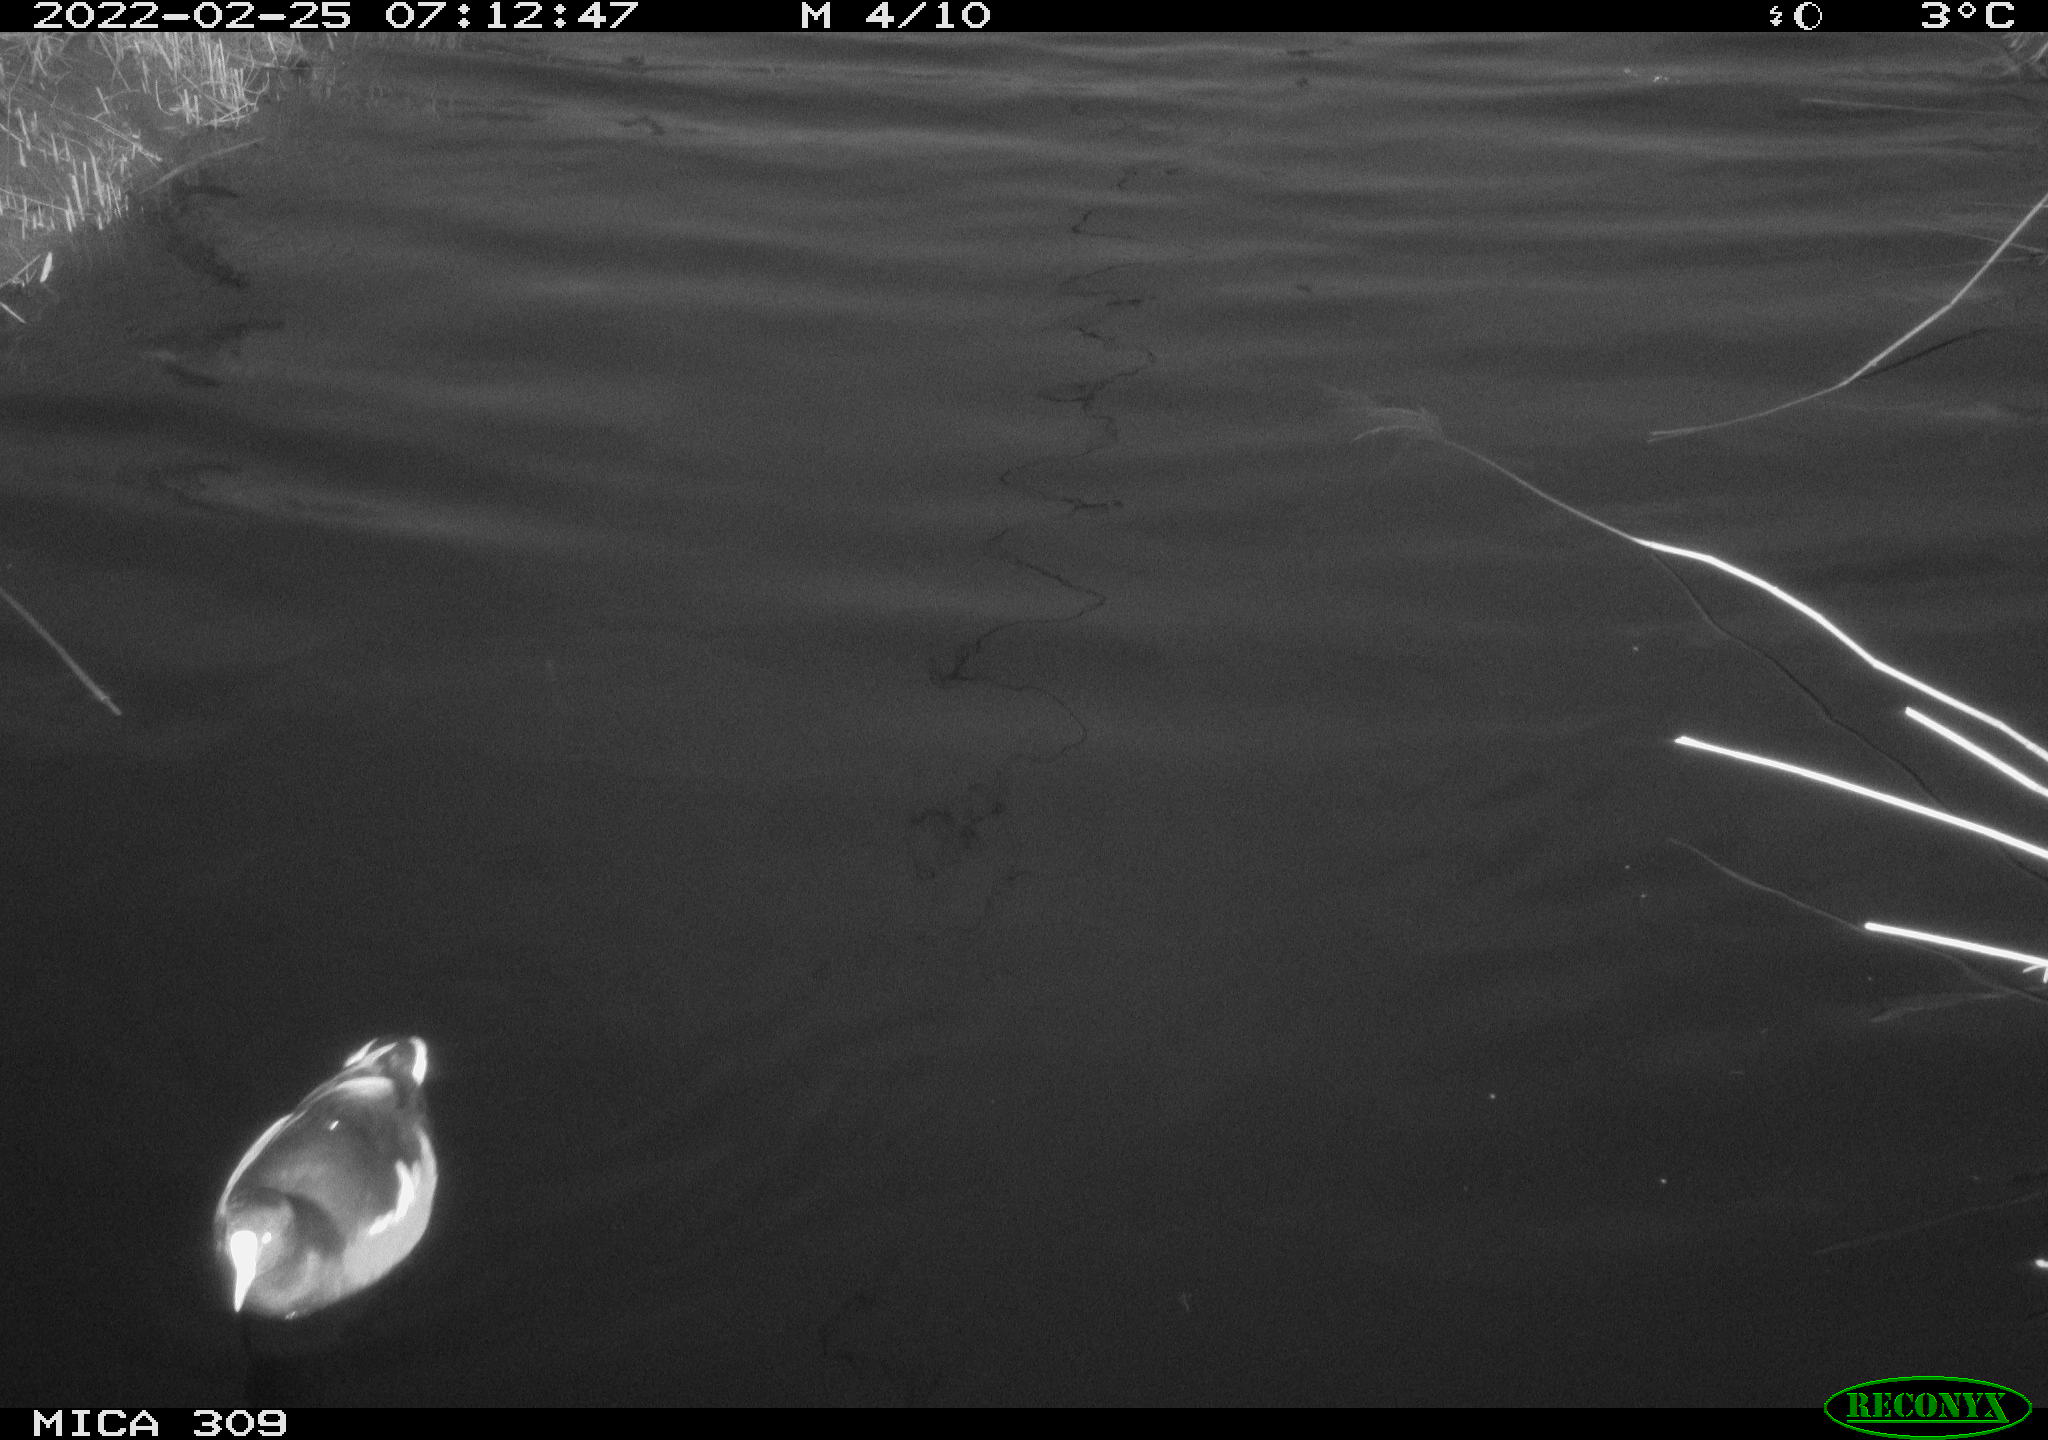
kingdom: Animalia
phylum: Chordata
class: Aves
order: Gruiformes
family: Rallidae
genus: Gallinula
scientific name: Gallinula chloropus
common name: Common moorhen
